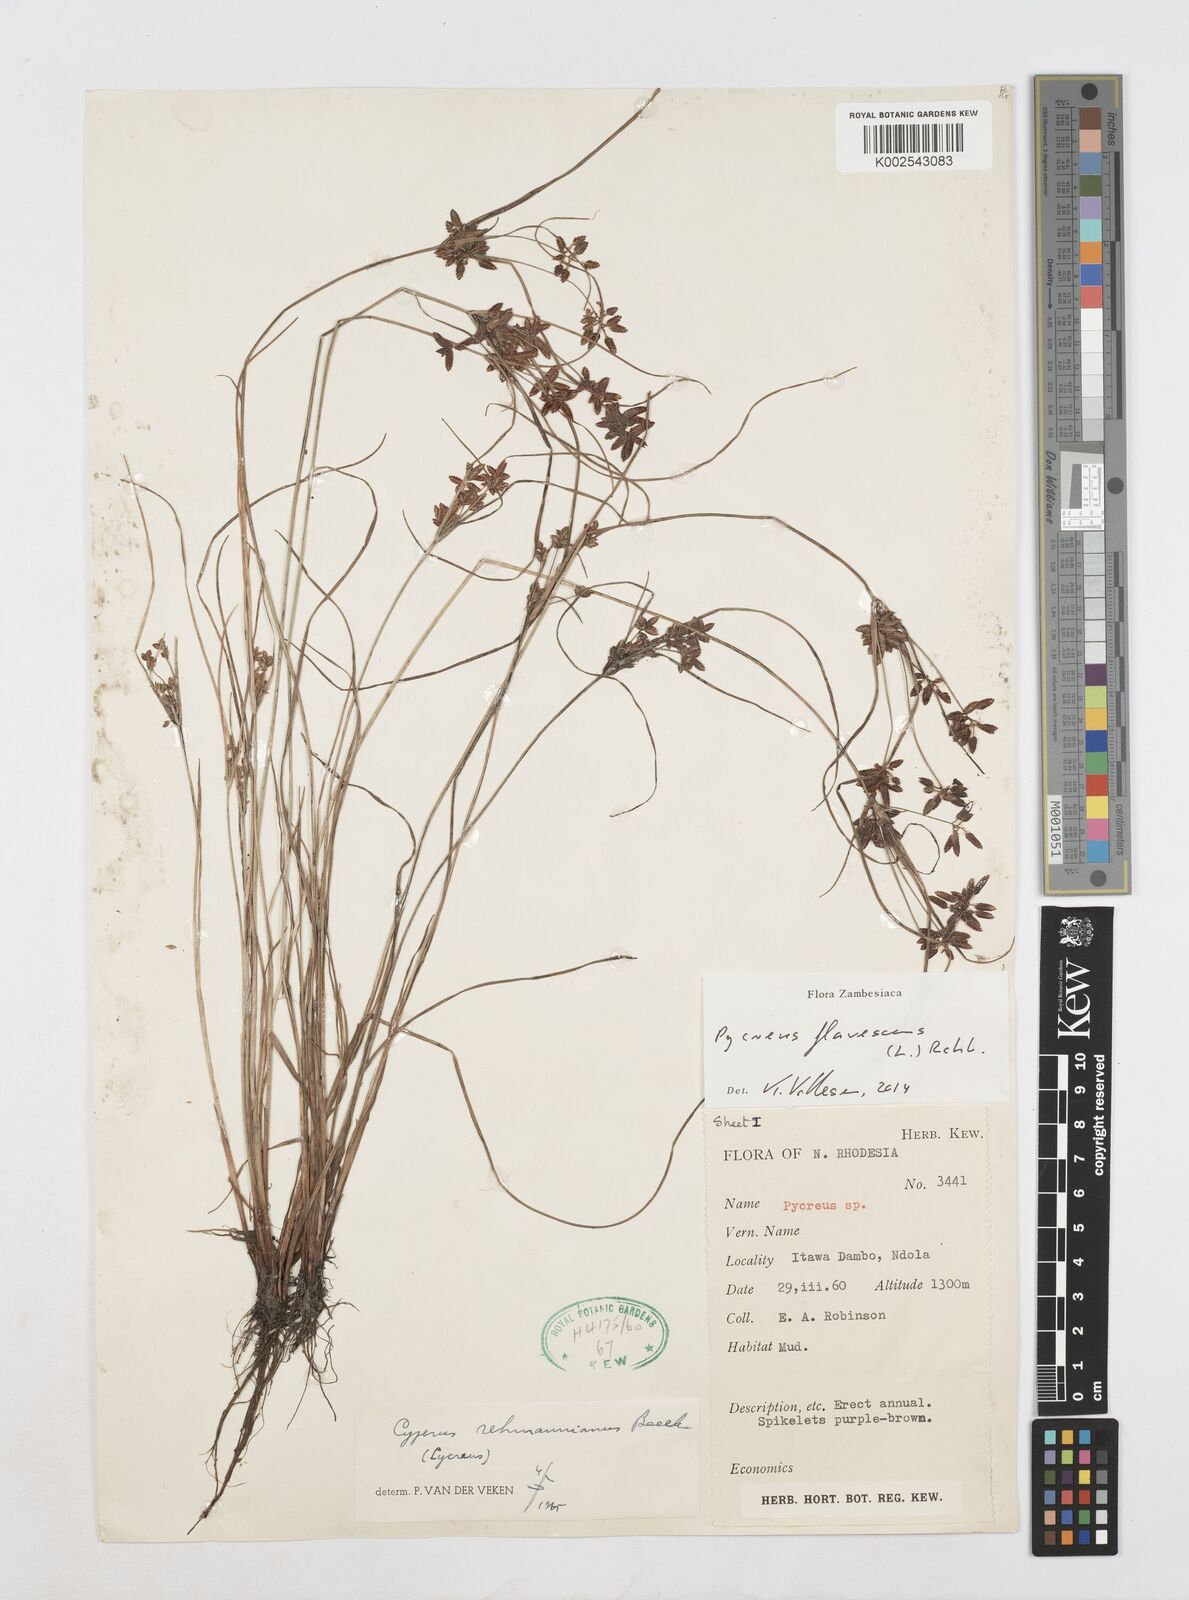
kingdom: Plantae
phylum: Tracheophyta
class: Liliopsida
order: Poales
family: Cyperaceae
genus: Cyperus
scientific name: Cyperus flavescens
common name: Yellow galingale
